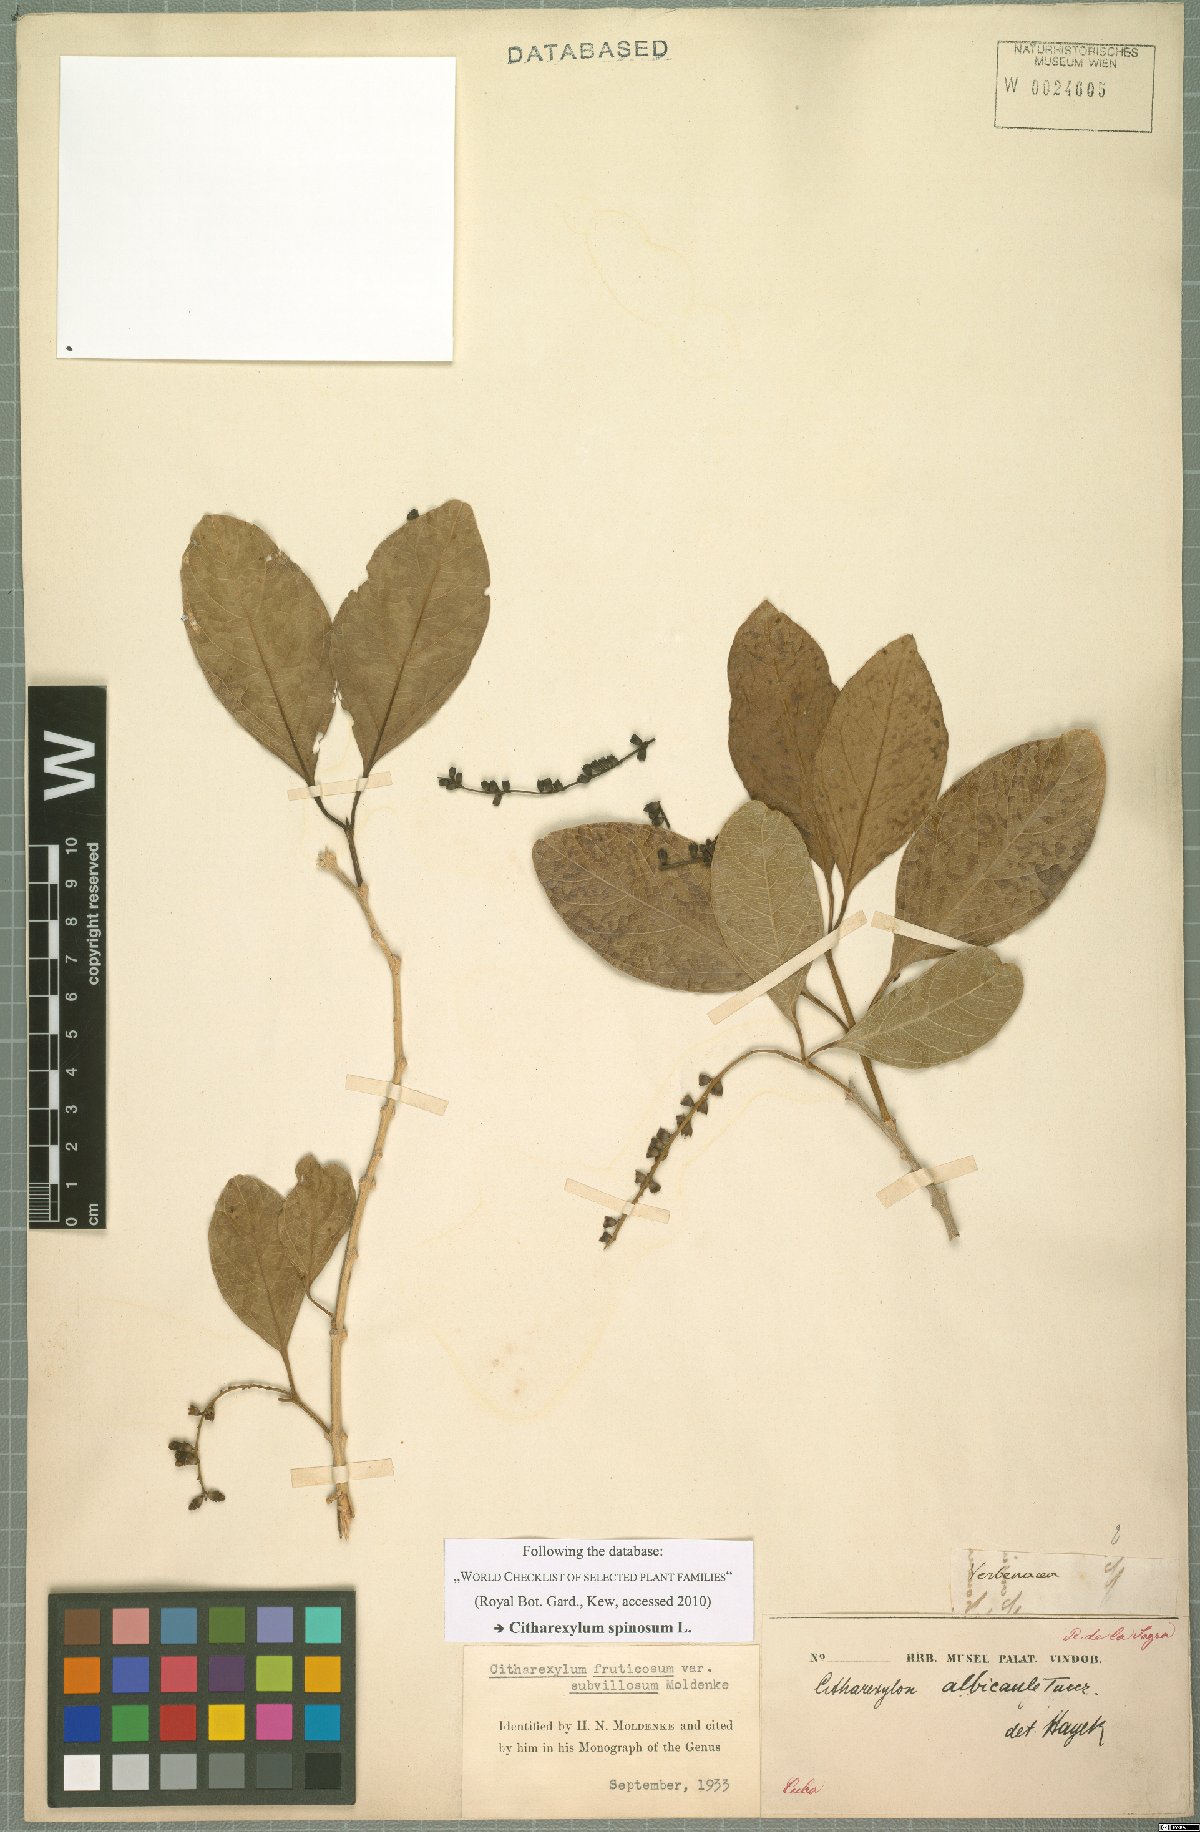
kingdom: Plantae
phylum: Tracheophyta
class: Magnoliopsida
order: Lamiales
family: Verbenaceae
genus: Citharexylum
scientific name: Citharexylum spinosum
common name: Fiddlewood
